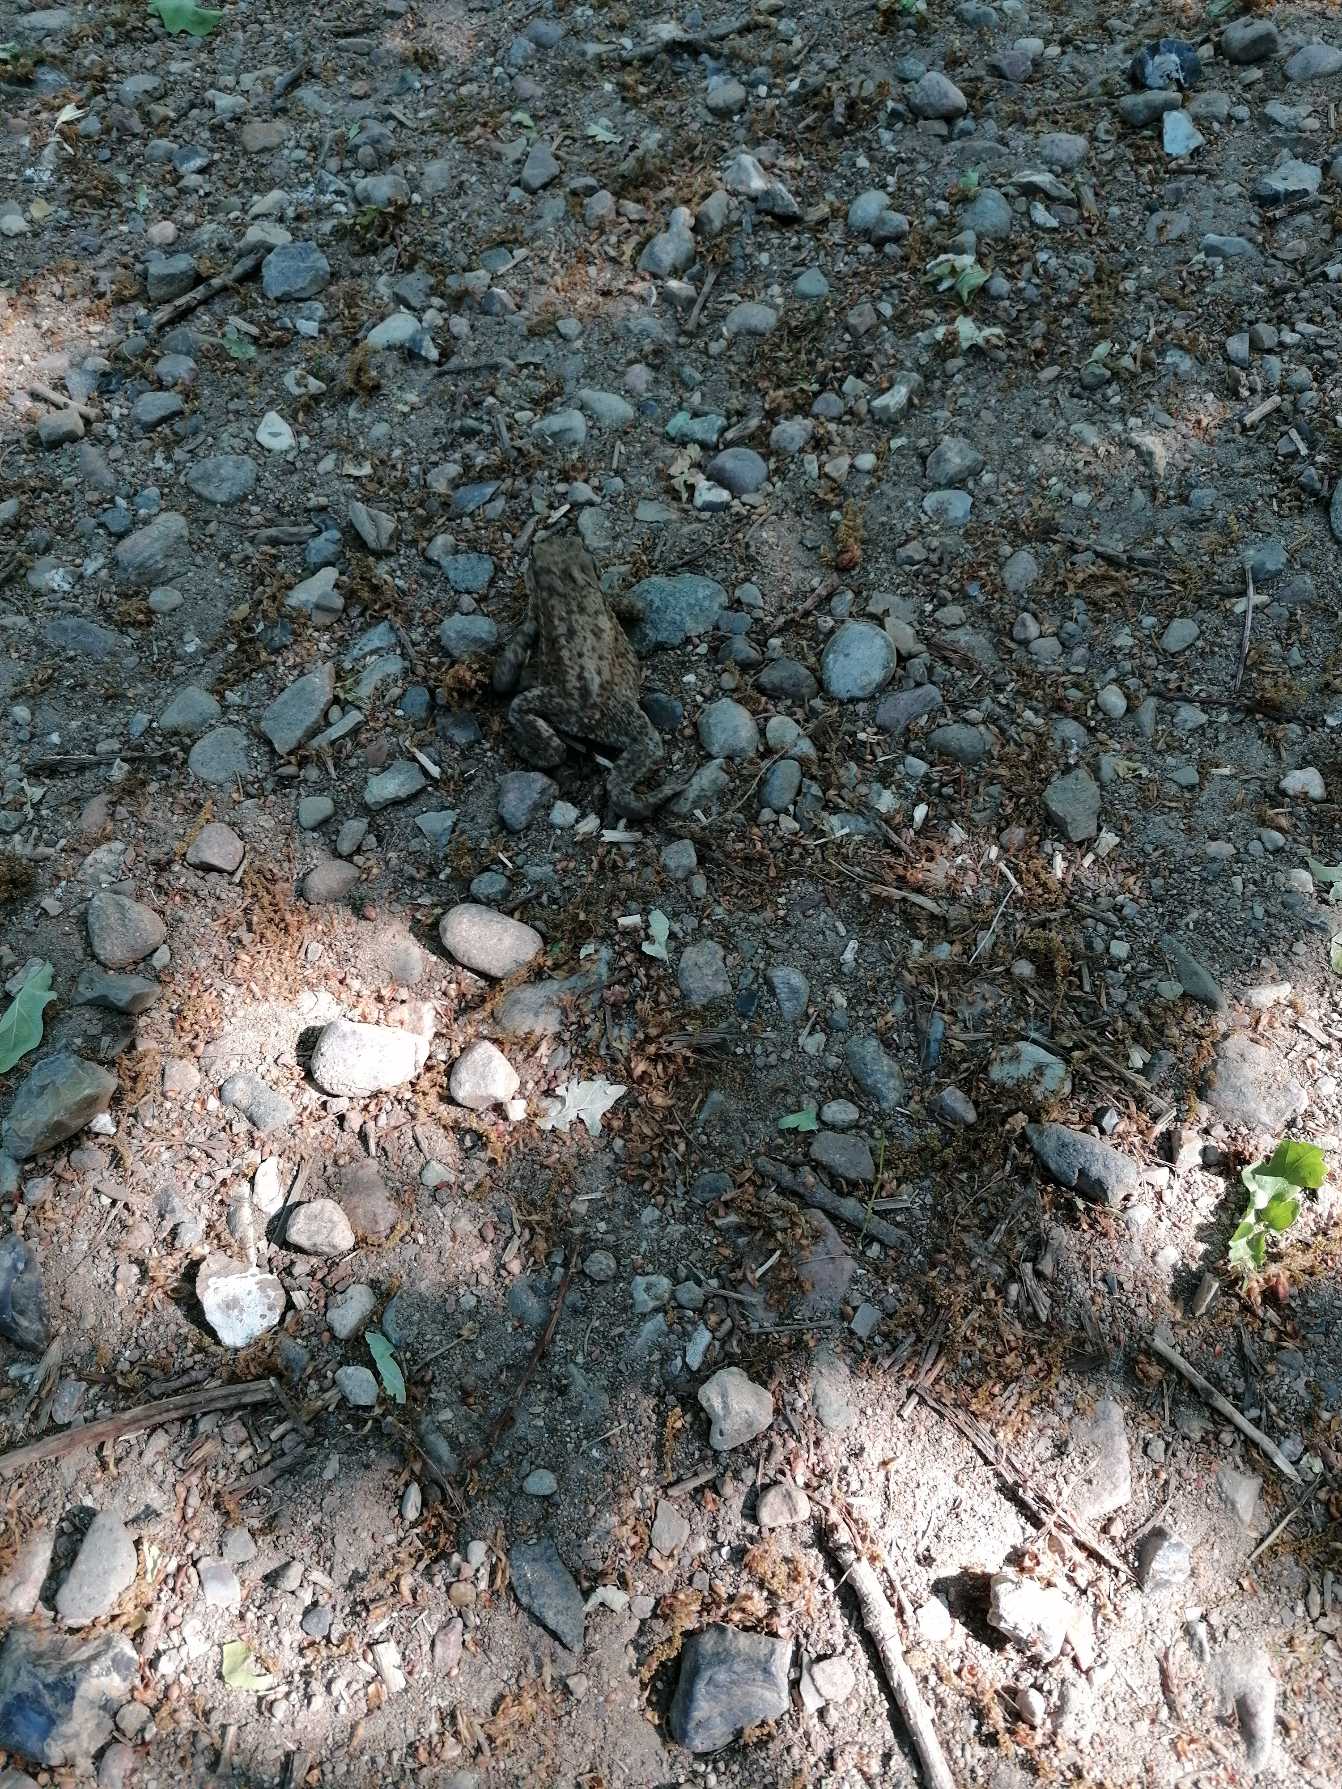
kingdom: Animalia
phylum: Chordata
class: Amphibia
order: Anura
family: Bufonidae
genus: Bufo
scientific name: Bufo bufo
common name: Skrubtudse
